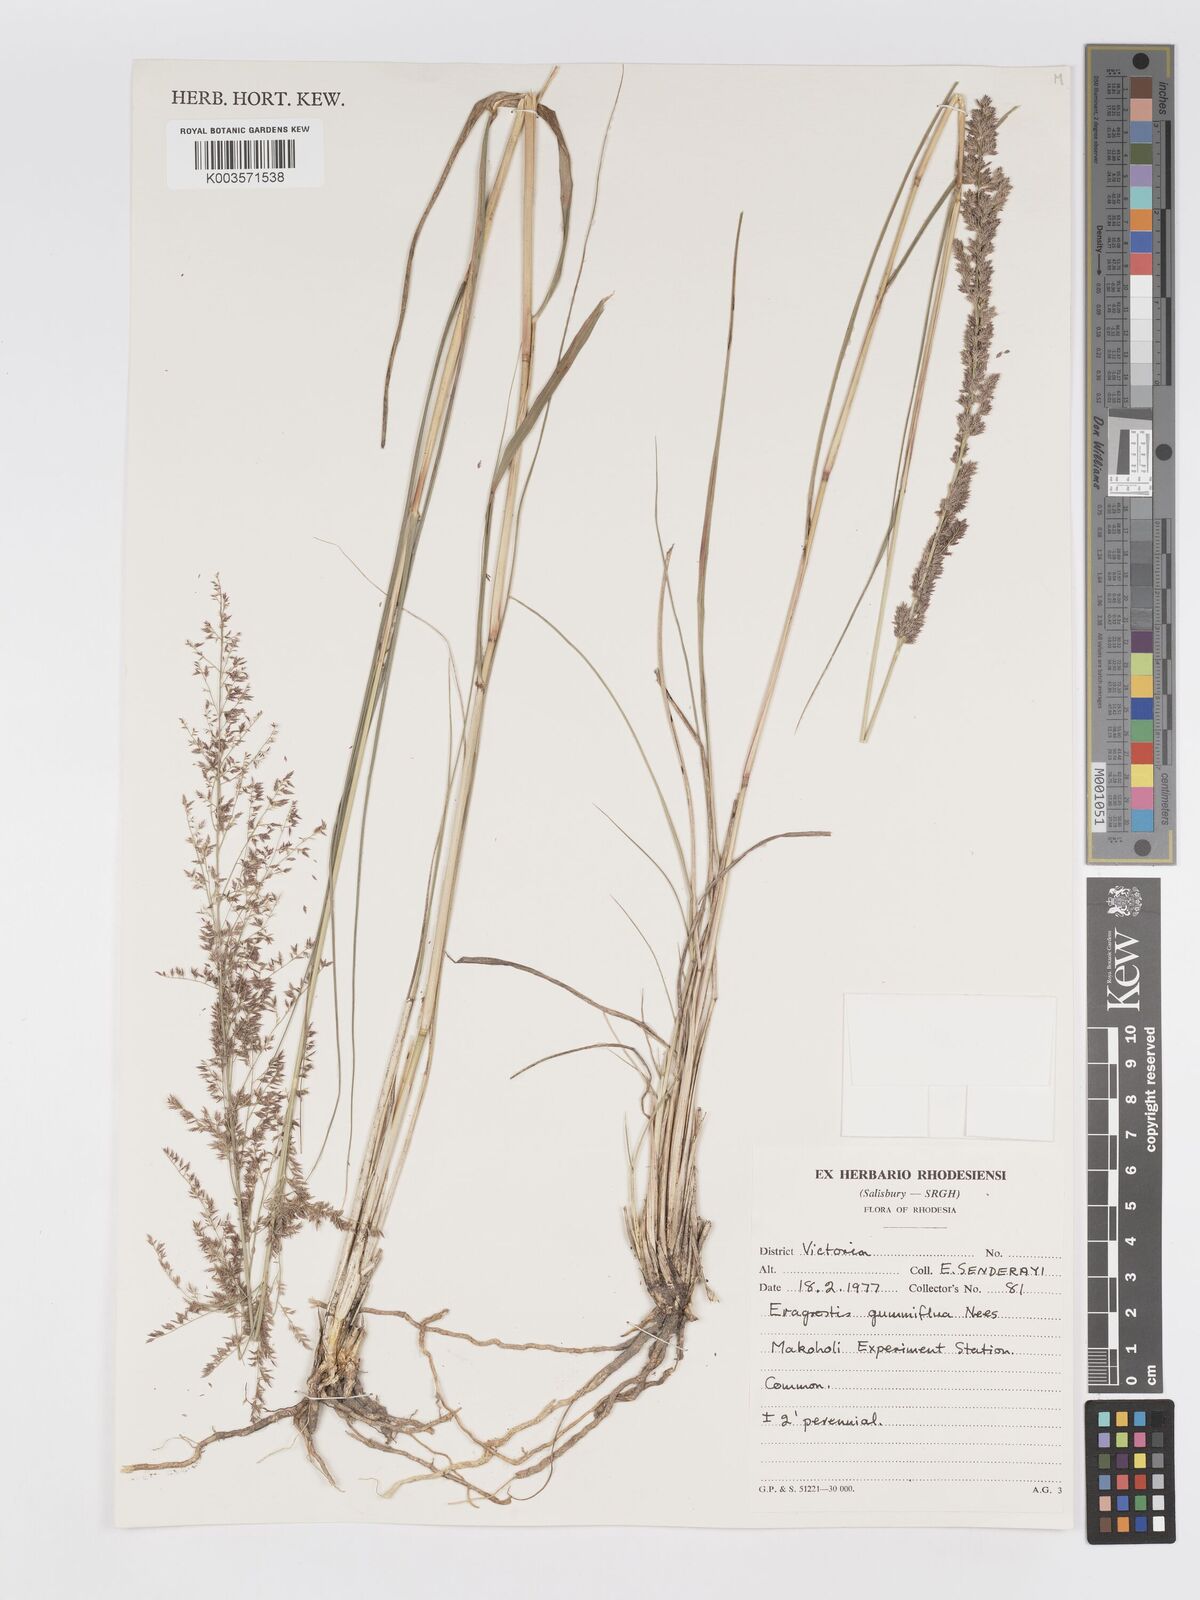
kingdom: Plantae
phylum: Tracheophyta
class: Liliopsida
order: Poales
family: Poaceae
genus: Eragrostis
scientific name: Eragrostis gummiflua
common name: Gum grass
